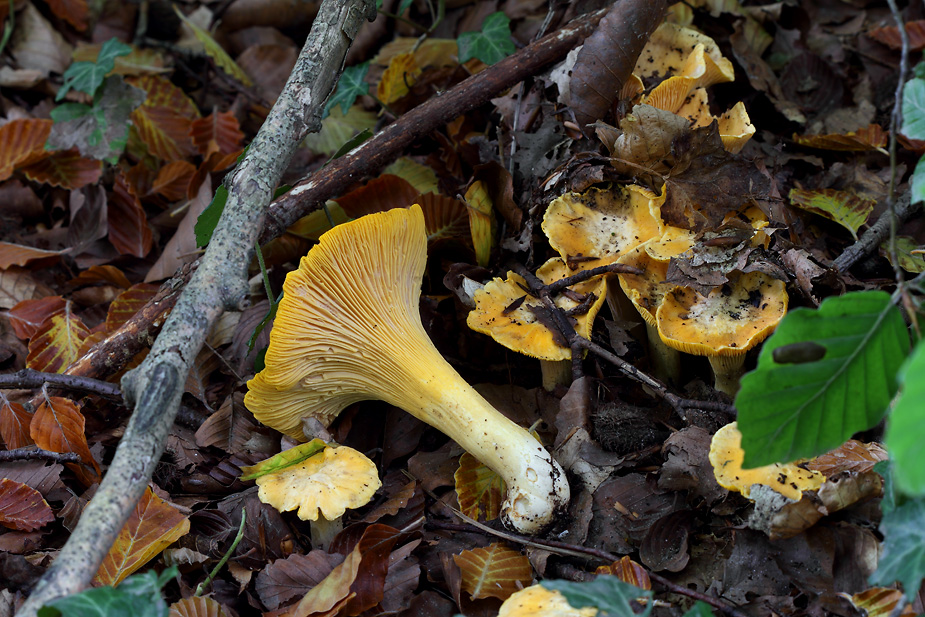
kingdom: Fungi
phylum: Basidiomycota
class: Agaricomycetes
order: Cantharellales
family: Hydnaceae
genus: Cantharellus
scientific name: Cantharellus pallens
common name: bleg kantarel
